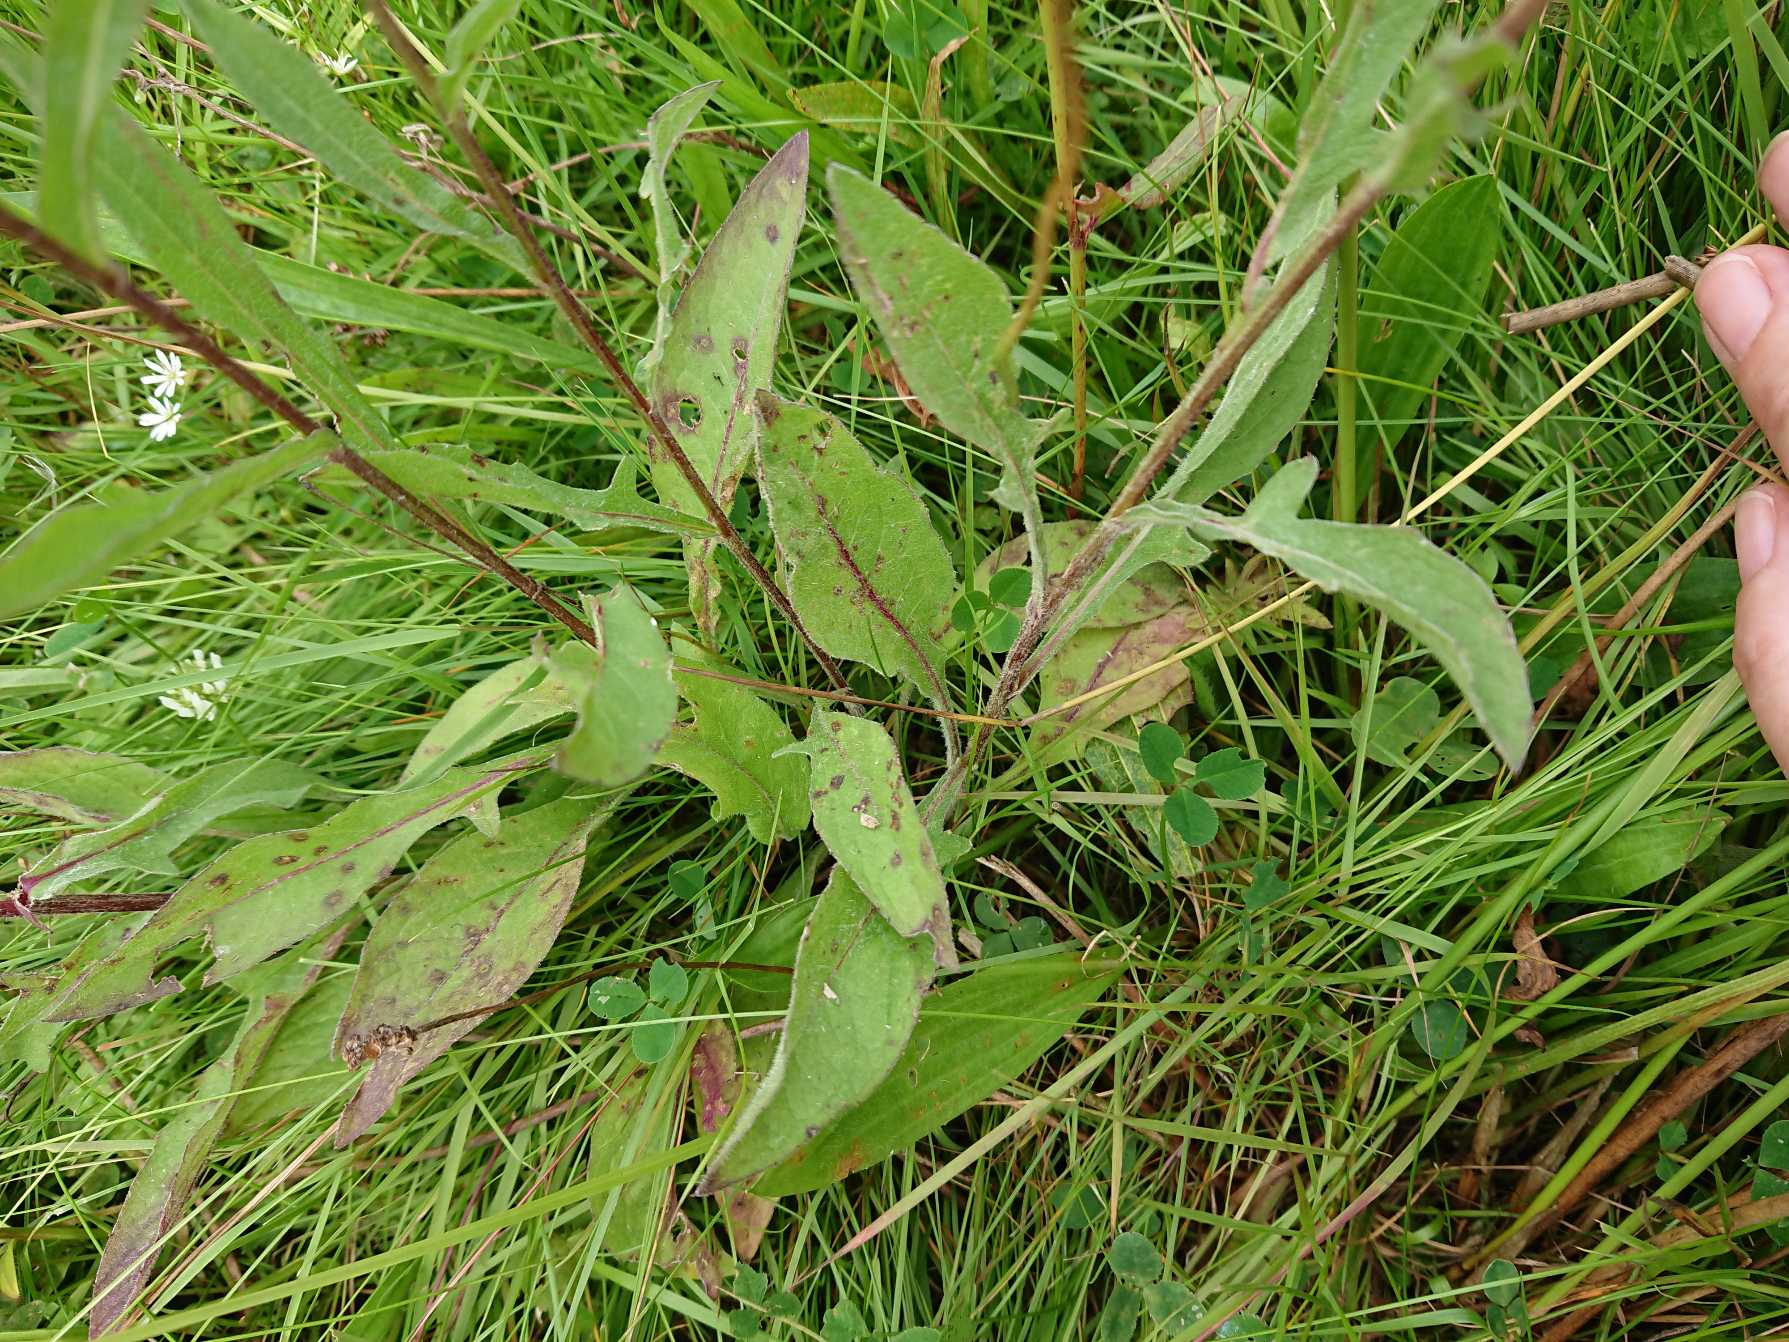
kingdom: Plantae
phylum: Tracheophyta
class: Magnoliopsida
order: Asterales
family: Asteraceae
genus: Centaurea
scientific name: Centaurea nigra
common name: Sorthoved-knopurt
